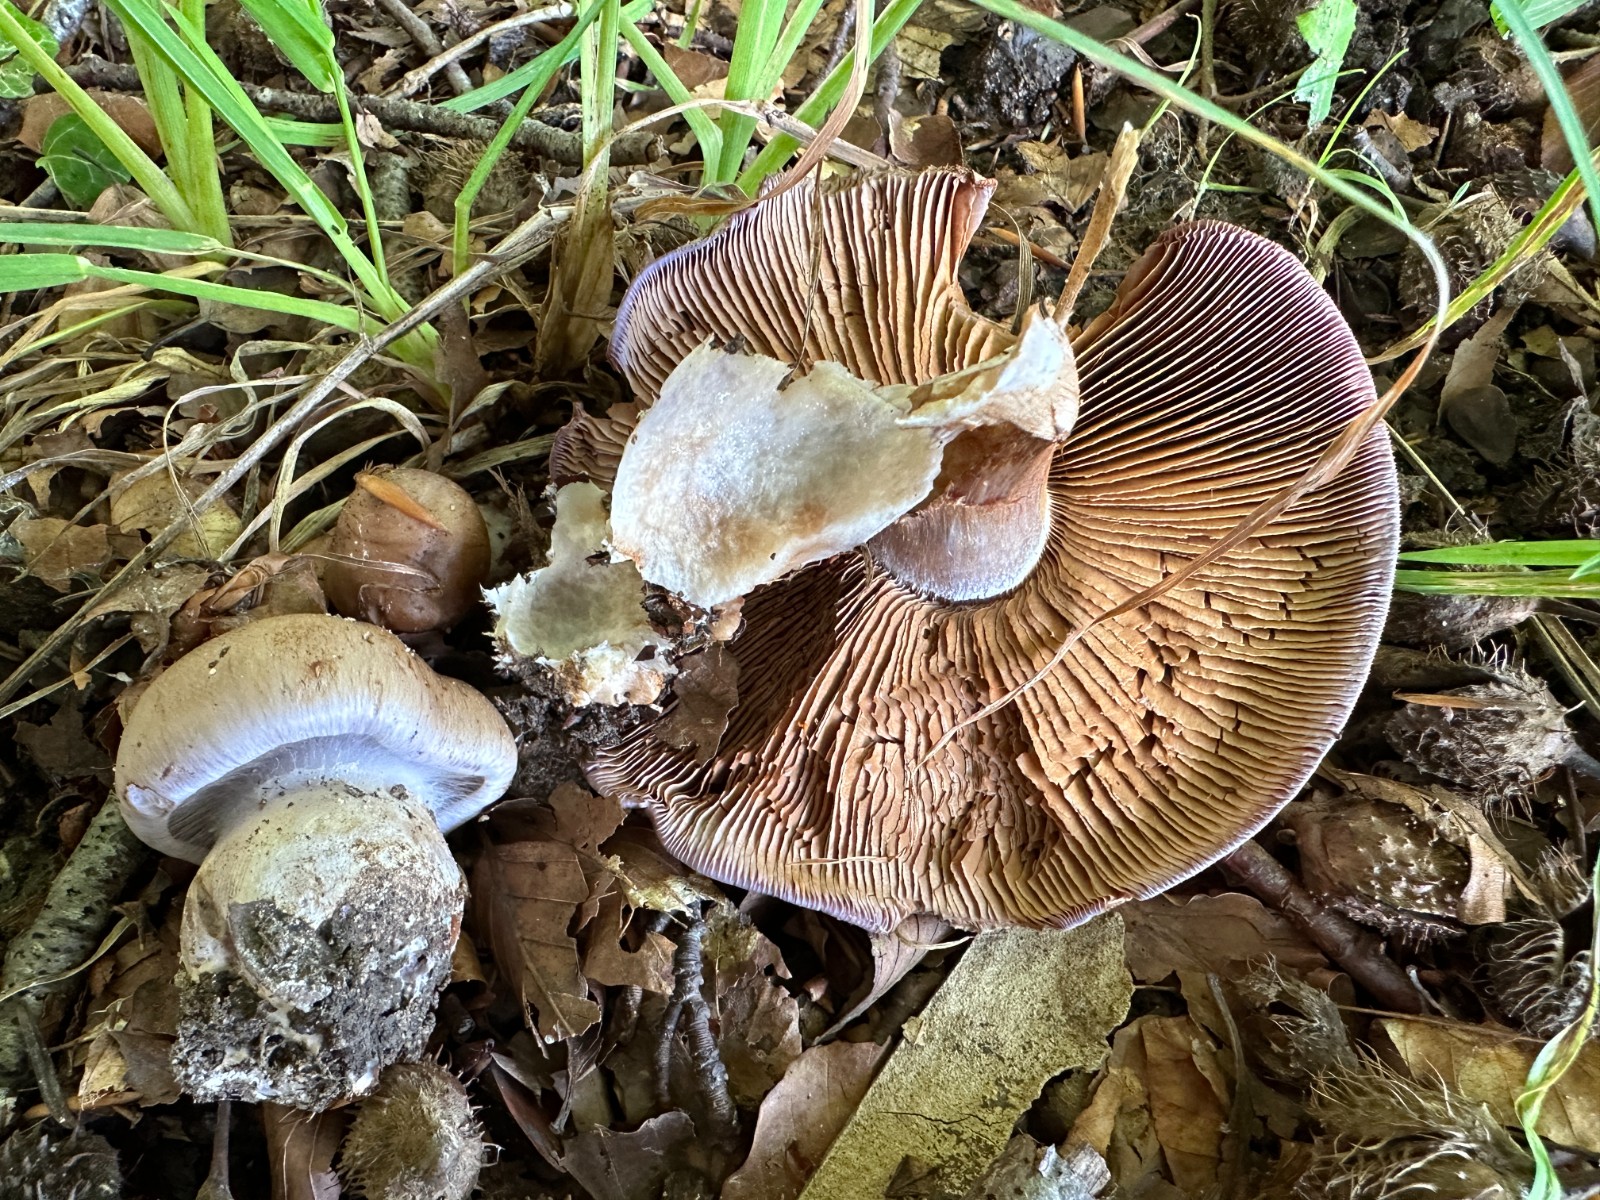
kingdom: Fungi
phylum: Basidiomycota
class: Agaricomycetes
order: Agaricales
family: Cortinariaceae
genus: Cortinarius
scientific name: Cortinarius largus
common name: violetrandet slørhat
